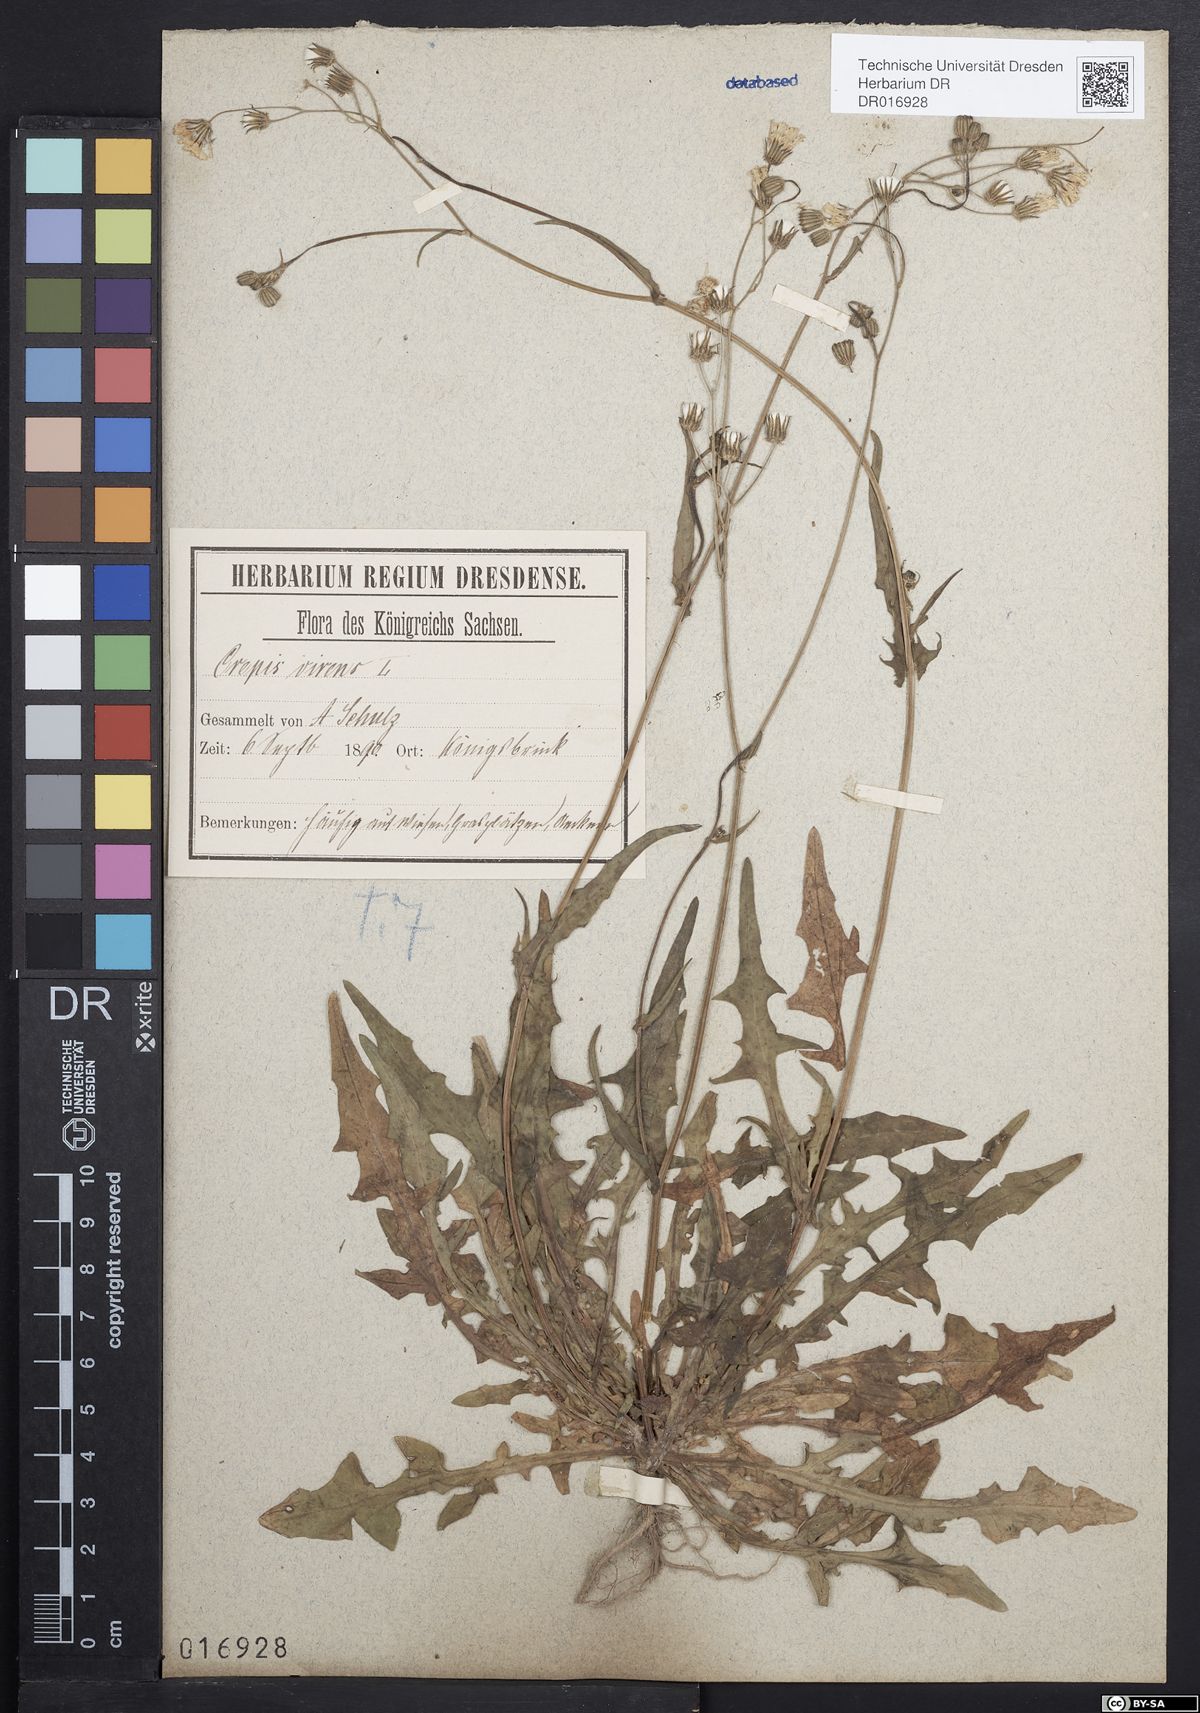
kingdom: Plantae
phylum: Tracheophyta
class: Magnoliopsida
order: Asterales
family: Asteraceae
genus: Crepis
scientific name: Crepis capillaris
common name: Smooth hawksbeard
